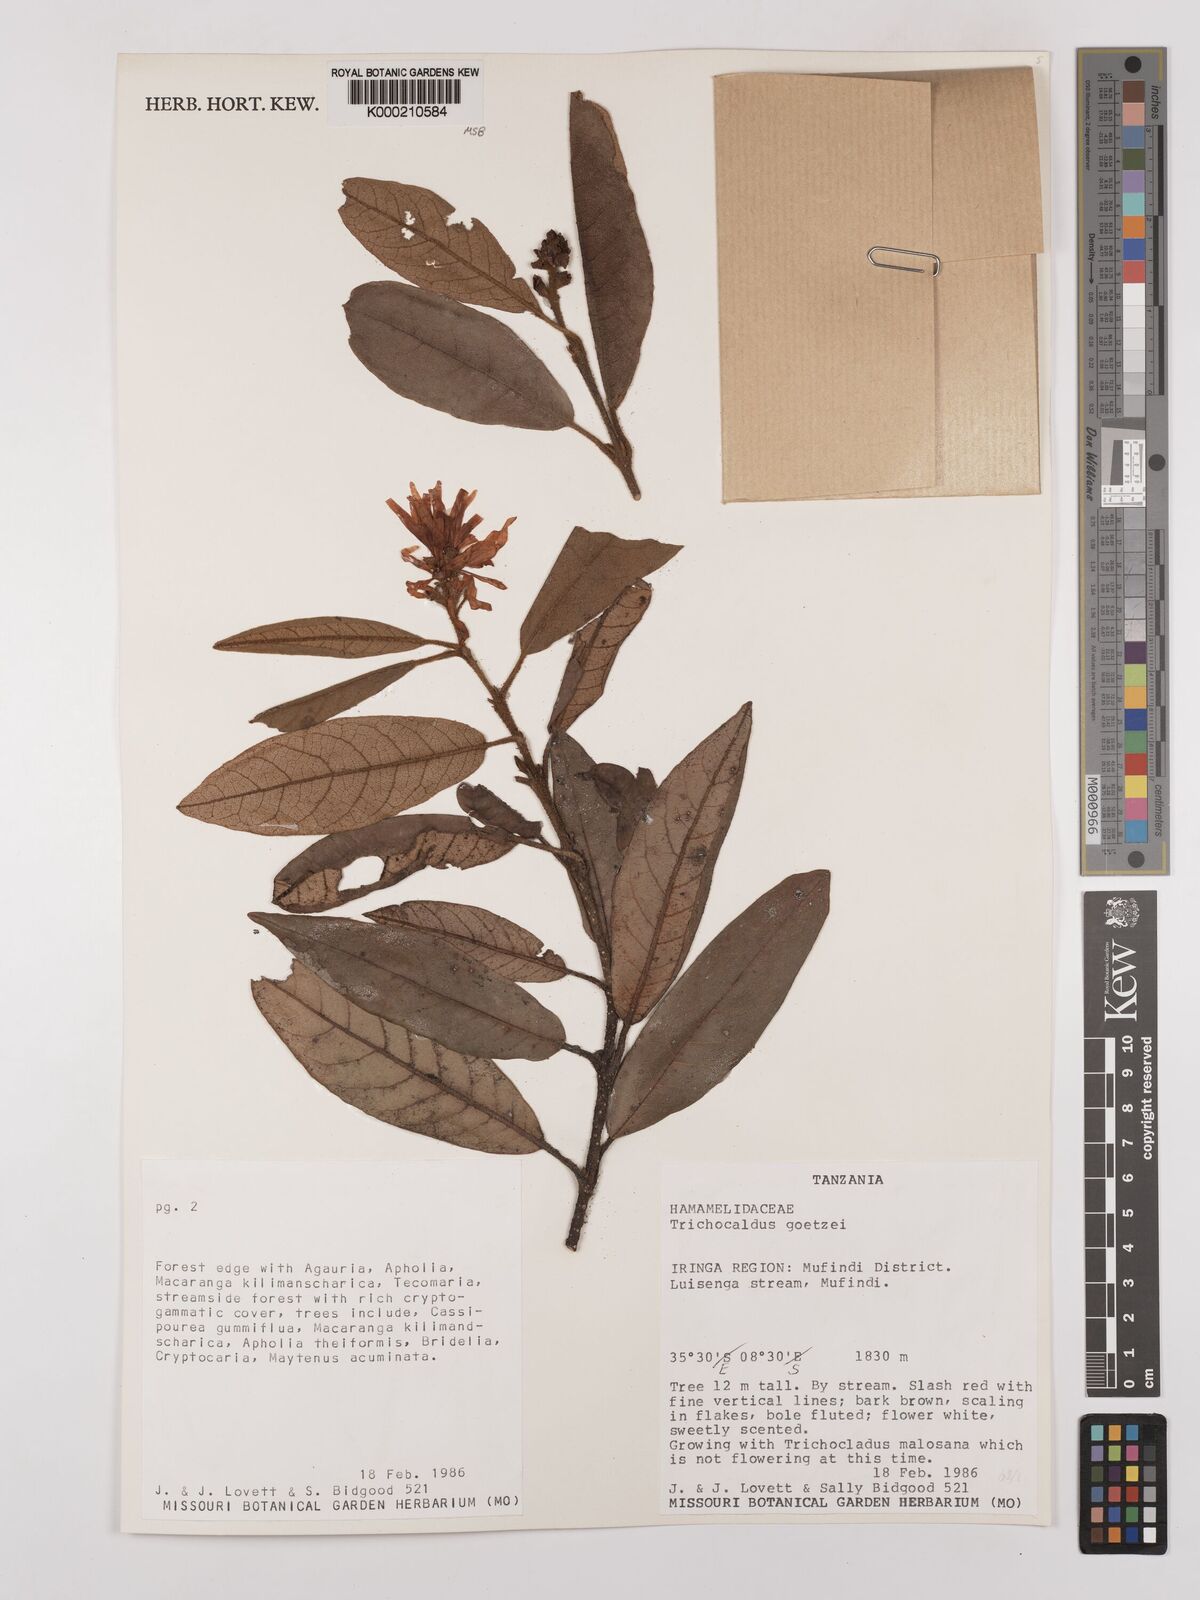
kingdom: Plantae
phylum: Tracheophyta
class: Magnoliopsida
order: Saxifragales
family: Hamamelidaceae
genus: Trichocladus
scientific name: Trichocladus goetzei
